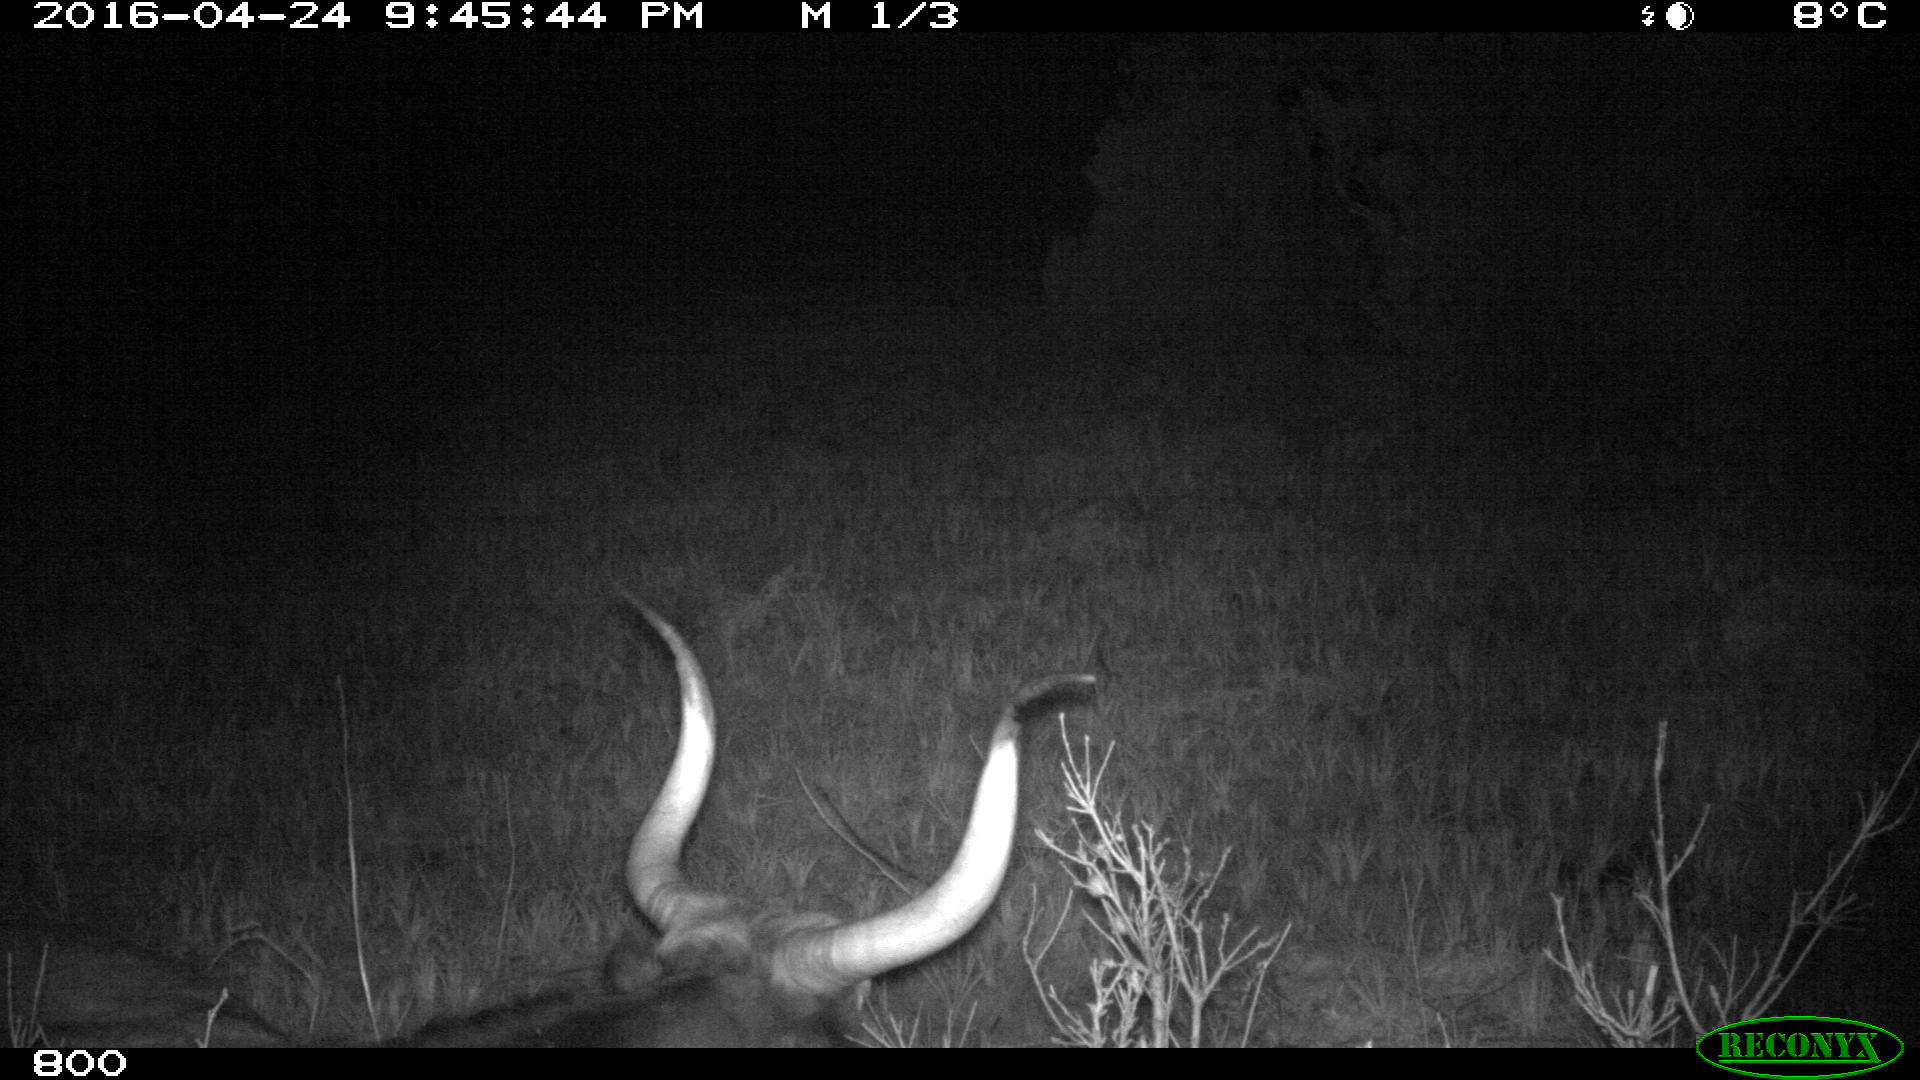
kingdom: Animalia
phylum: Chordata
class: Mammalia
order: Artiodactyla
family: Bovidae
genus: Bos
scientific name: Bos taurus
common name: Domesticated cattle
